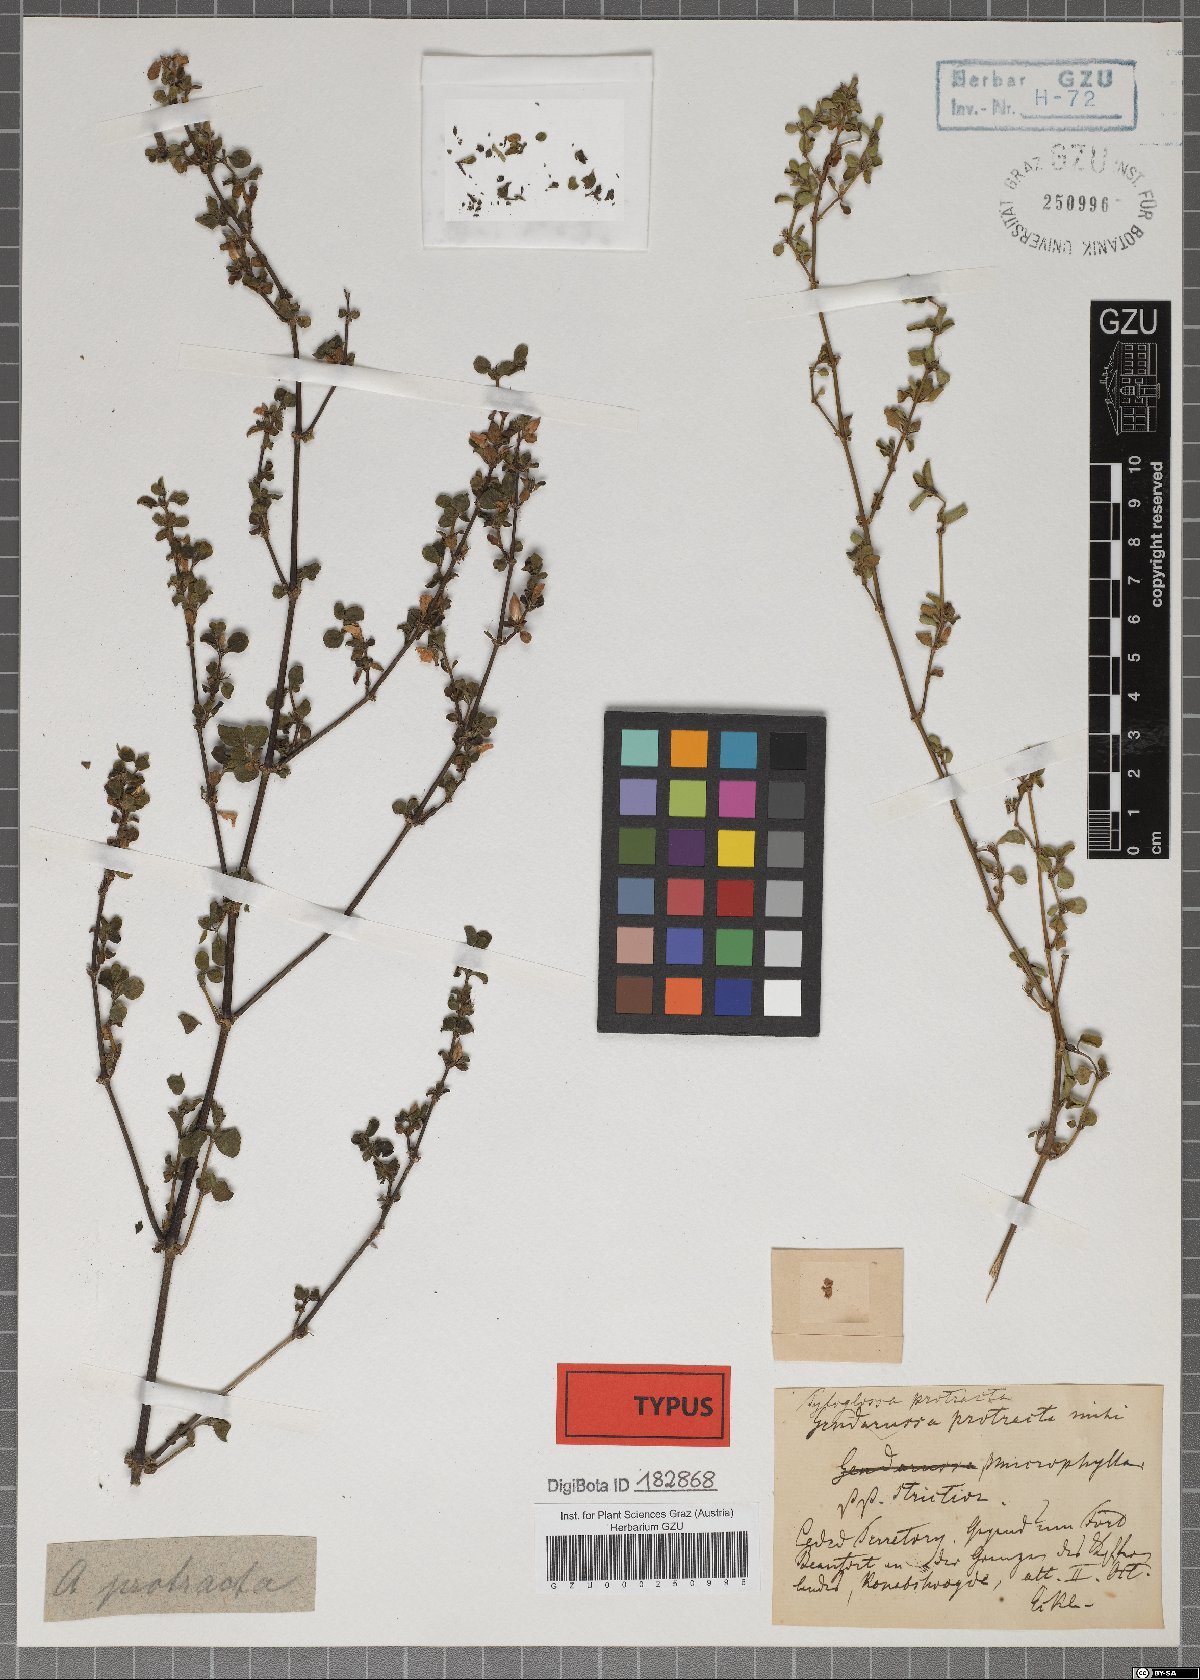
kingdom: Plantae
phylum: Tracheophyta
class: Magnoliopsida
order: Lamiales
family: Acanthaceae
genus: Justicia
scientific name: Justicia protracta
